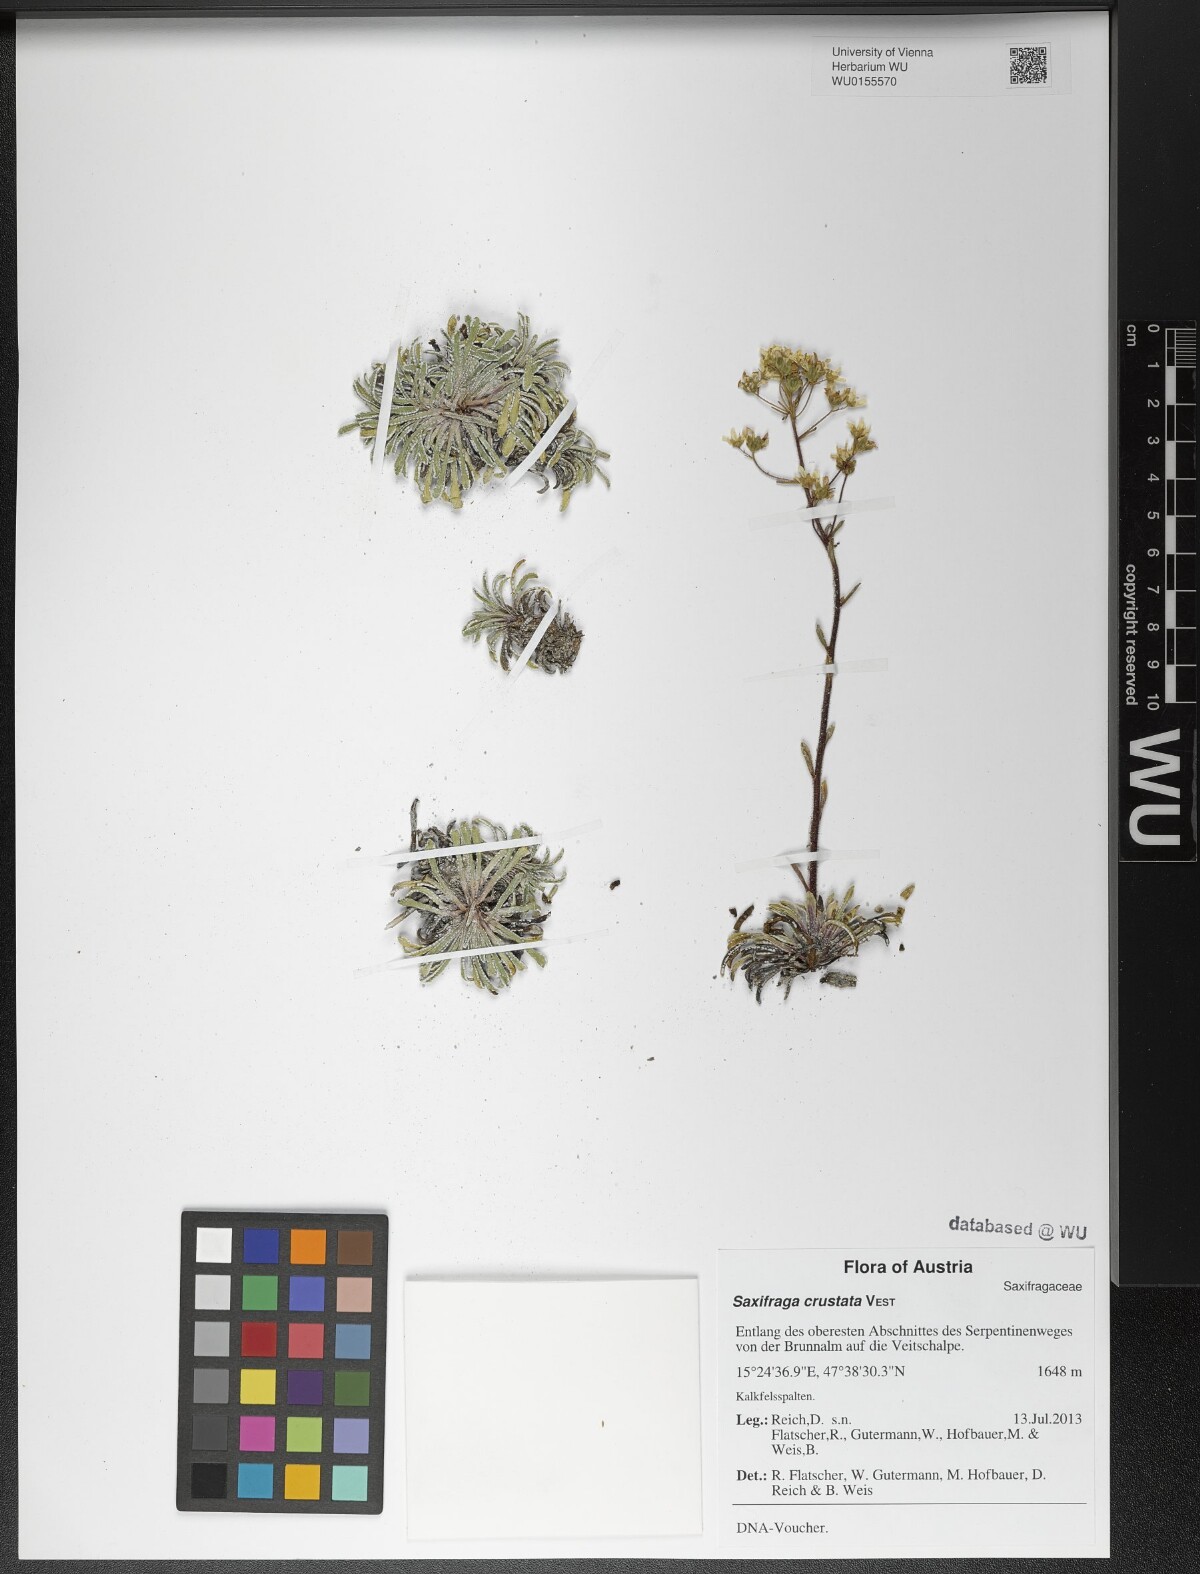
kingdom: Plantae
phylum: Tracheophyta
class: Magnoliopsida
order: Saxifragales
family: Saxifragaceae
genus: Saxifraga
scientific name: Saxifraga crustata
